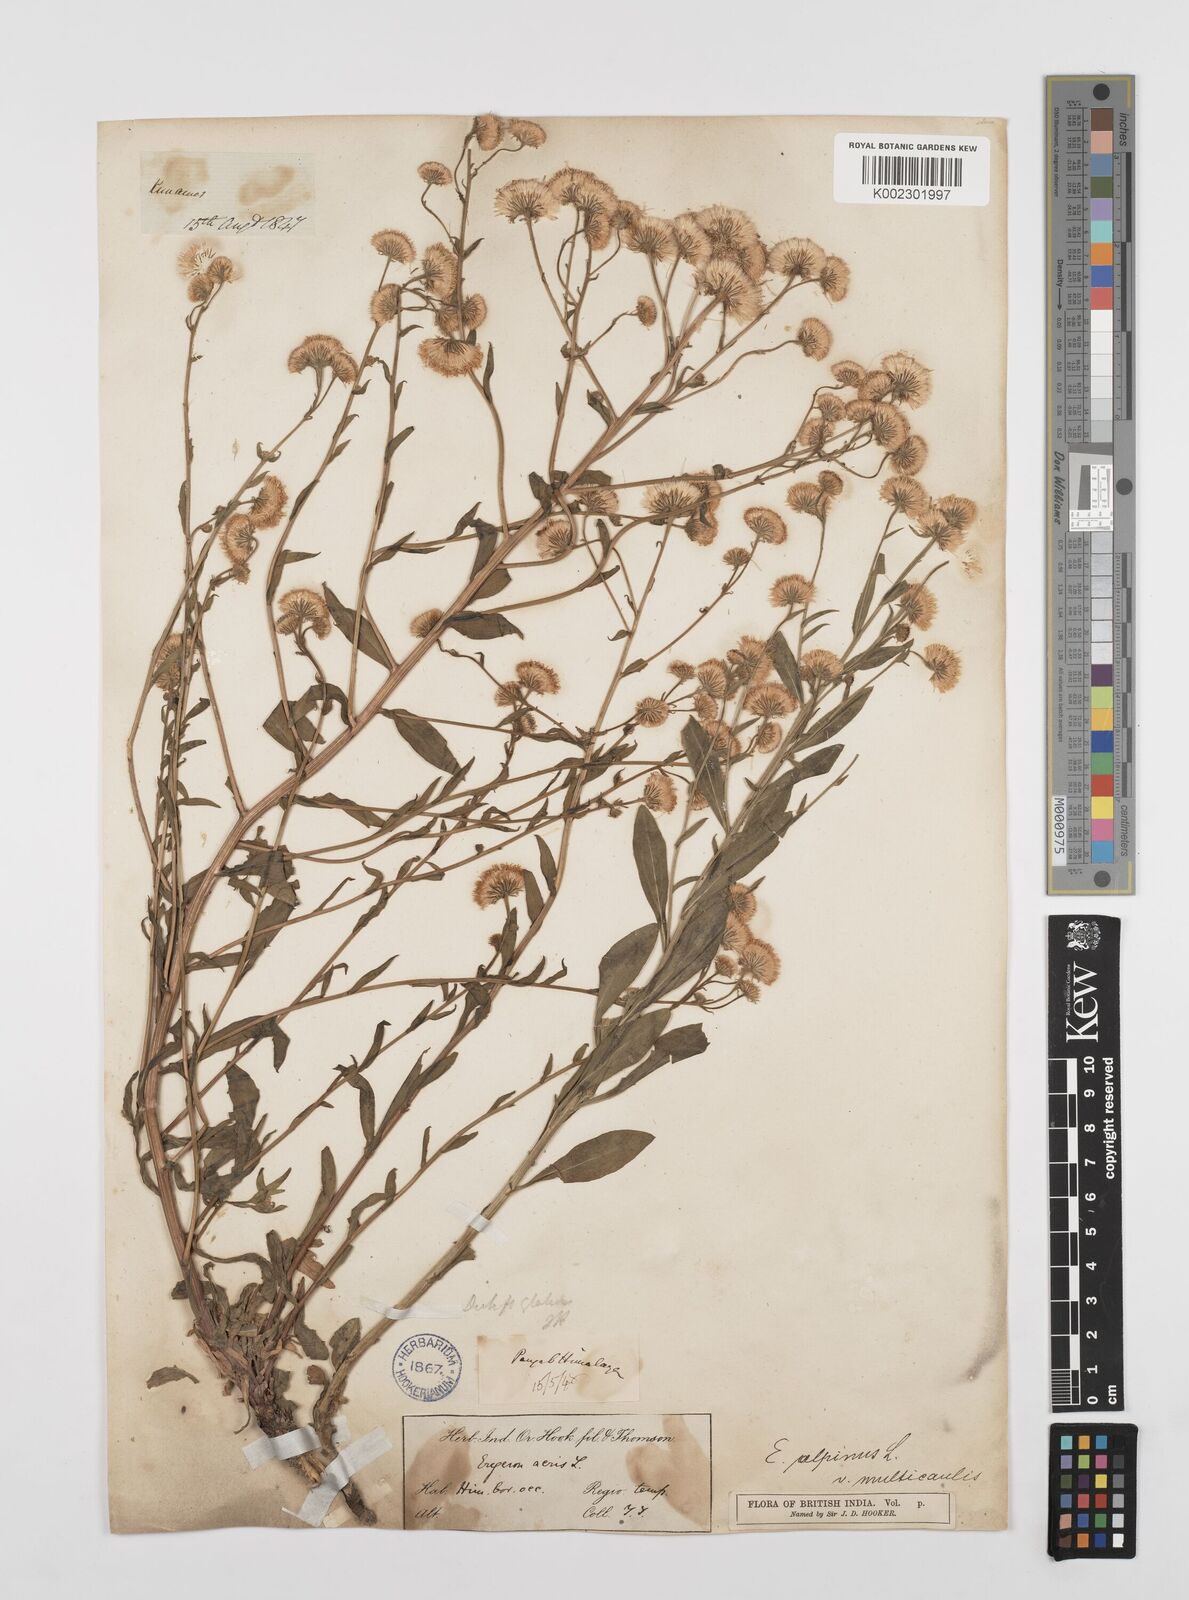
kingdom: Plantae
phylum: Tracheophyta
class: Magnoliopsida
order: Asterales
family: Asteraceae
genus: Erigeron
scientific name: Erigeron alpinus
